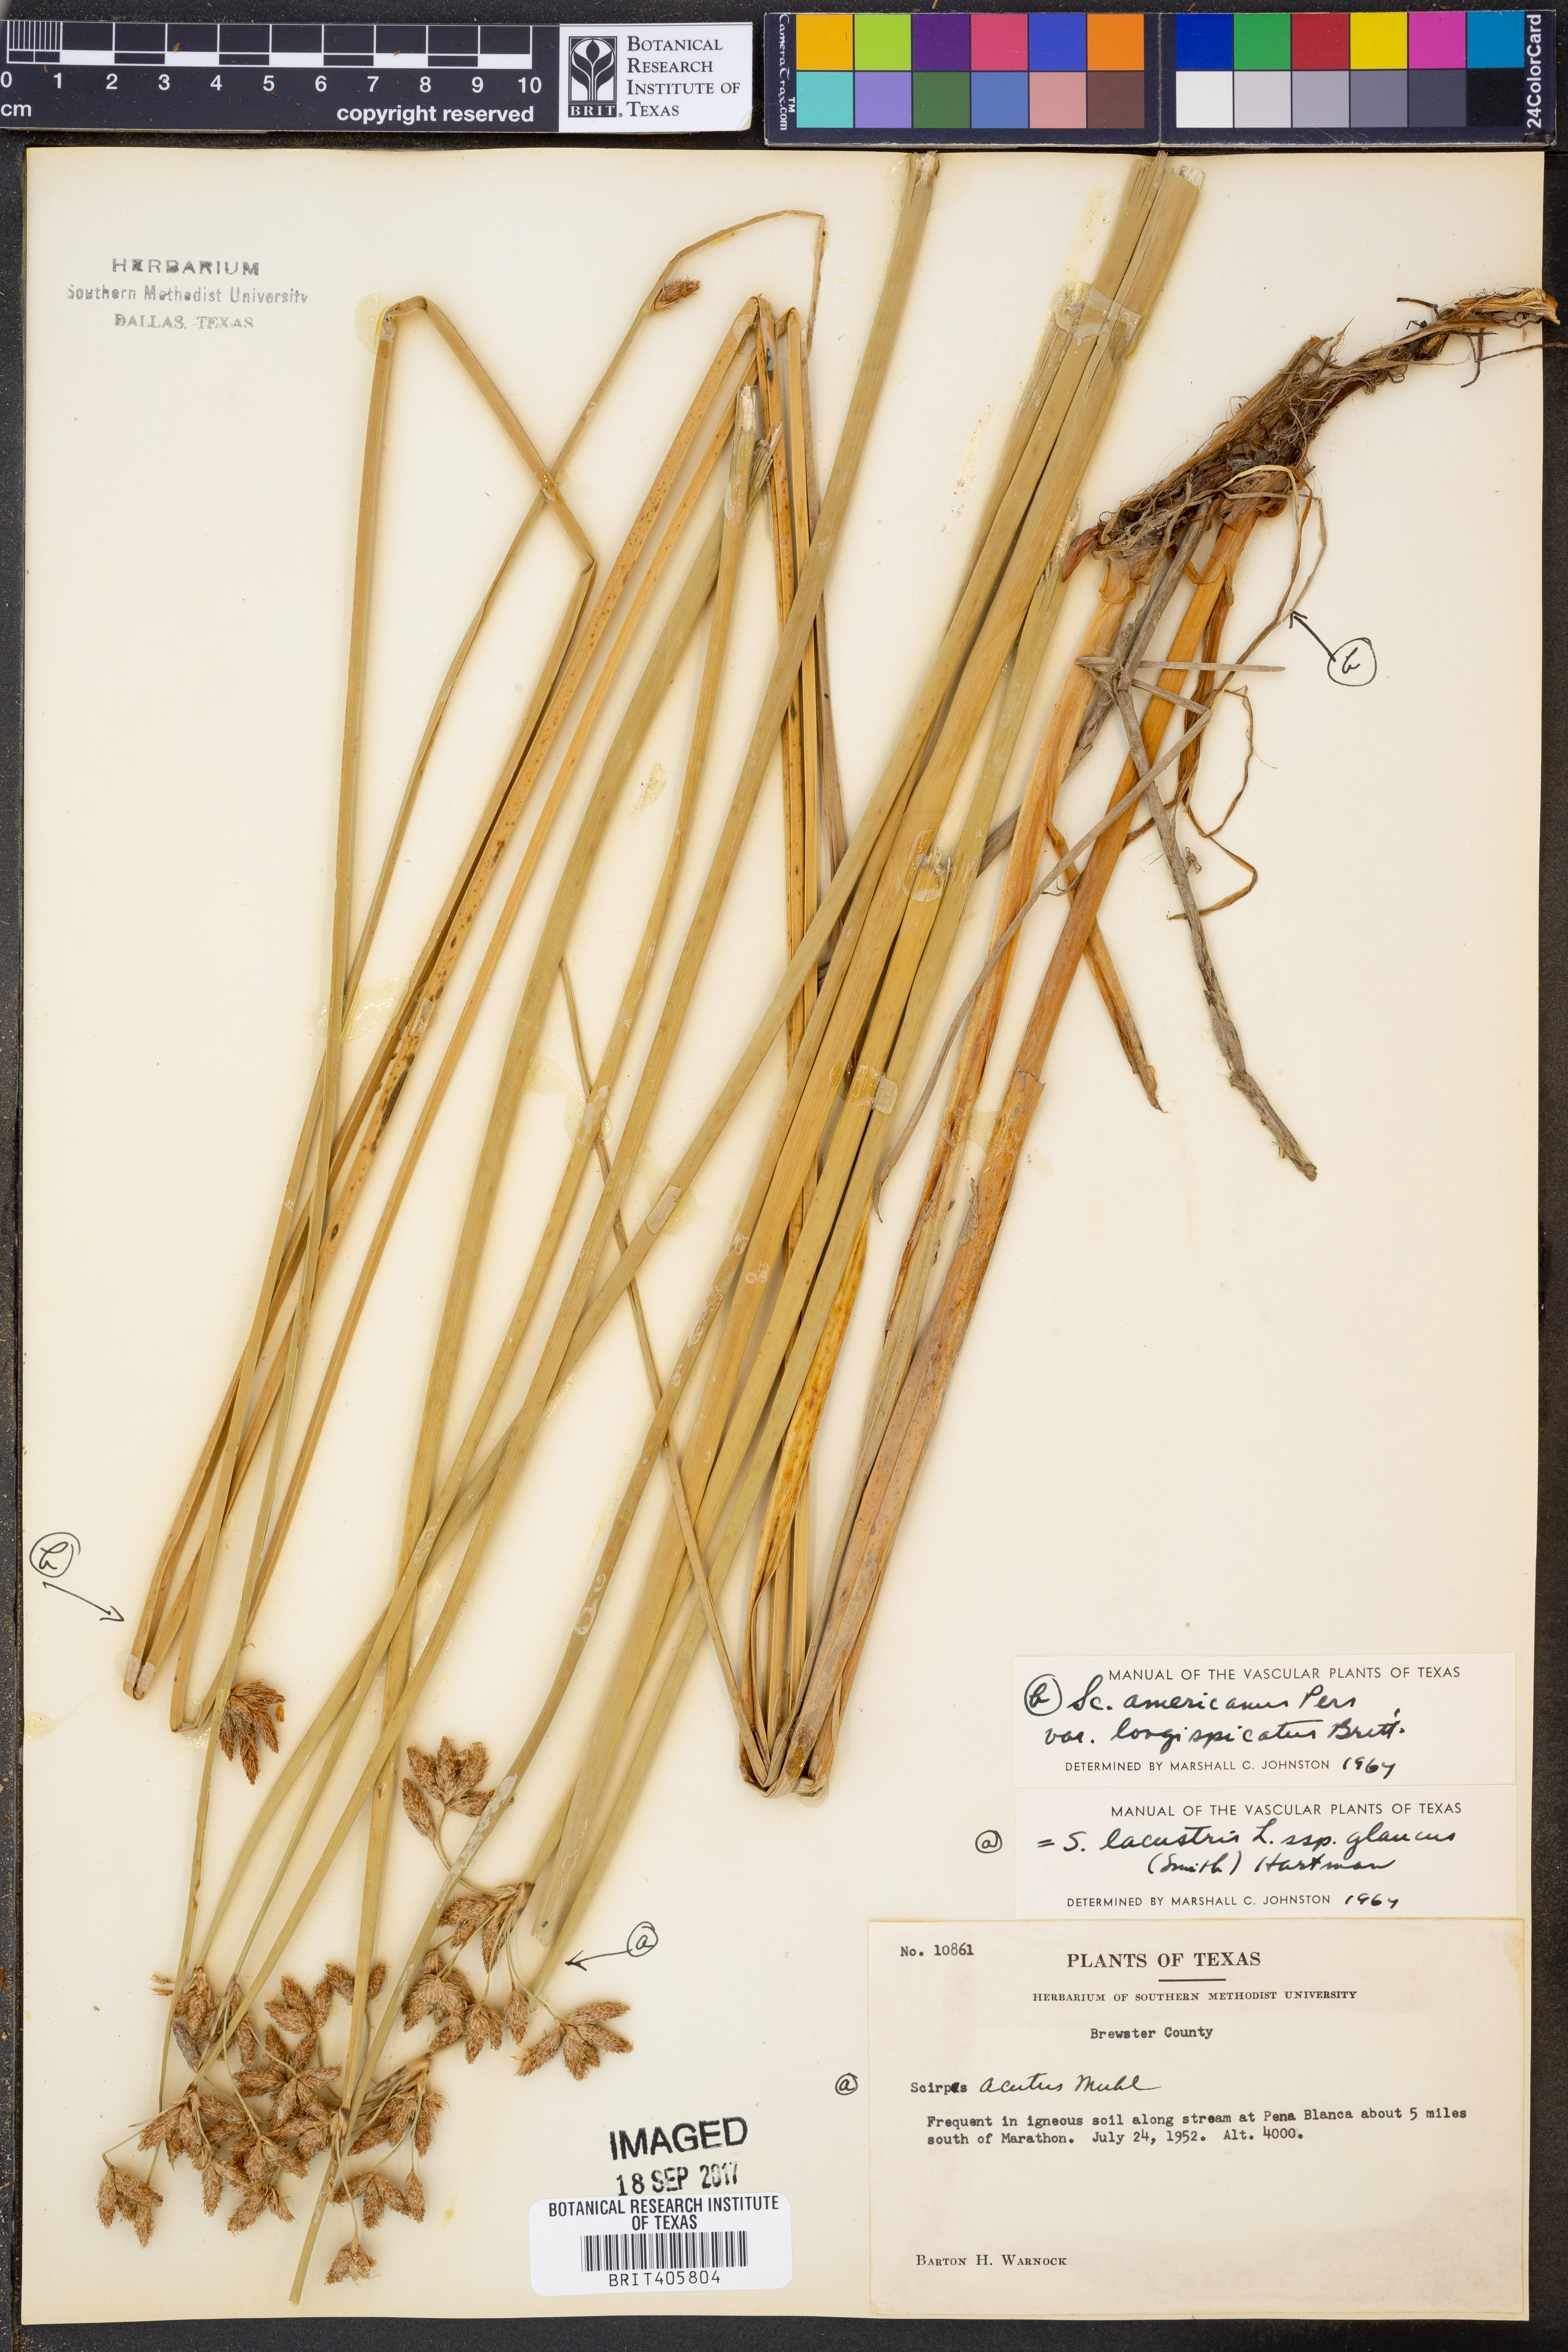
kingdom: Plantae
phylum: Tracheophyta
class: Liliopsida
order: Poales
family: Cyperaceae
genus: Schoenoplectus
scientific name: Schoenoplectus tabernaemontani
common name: Grey club-rush
